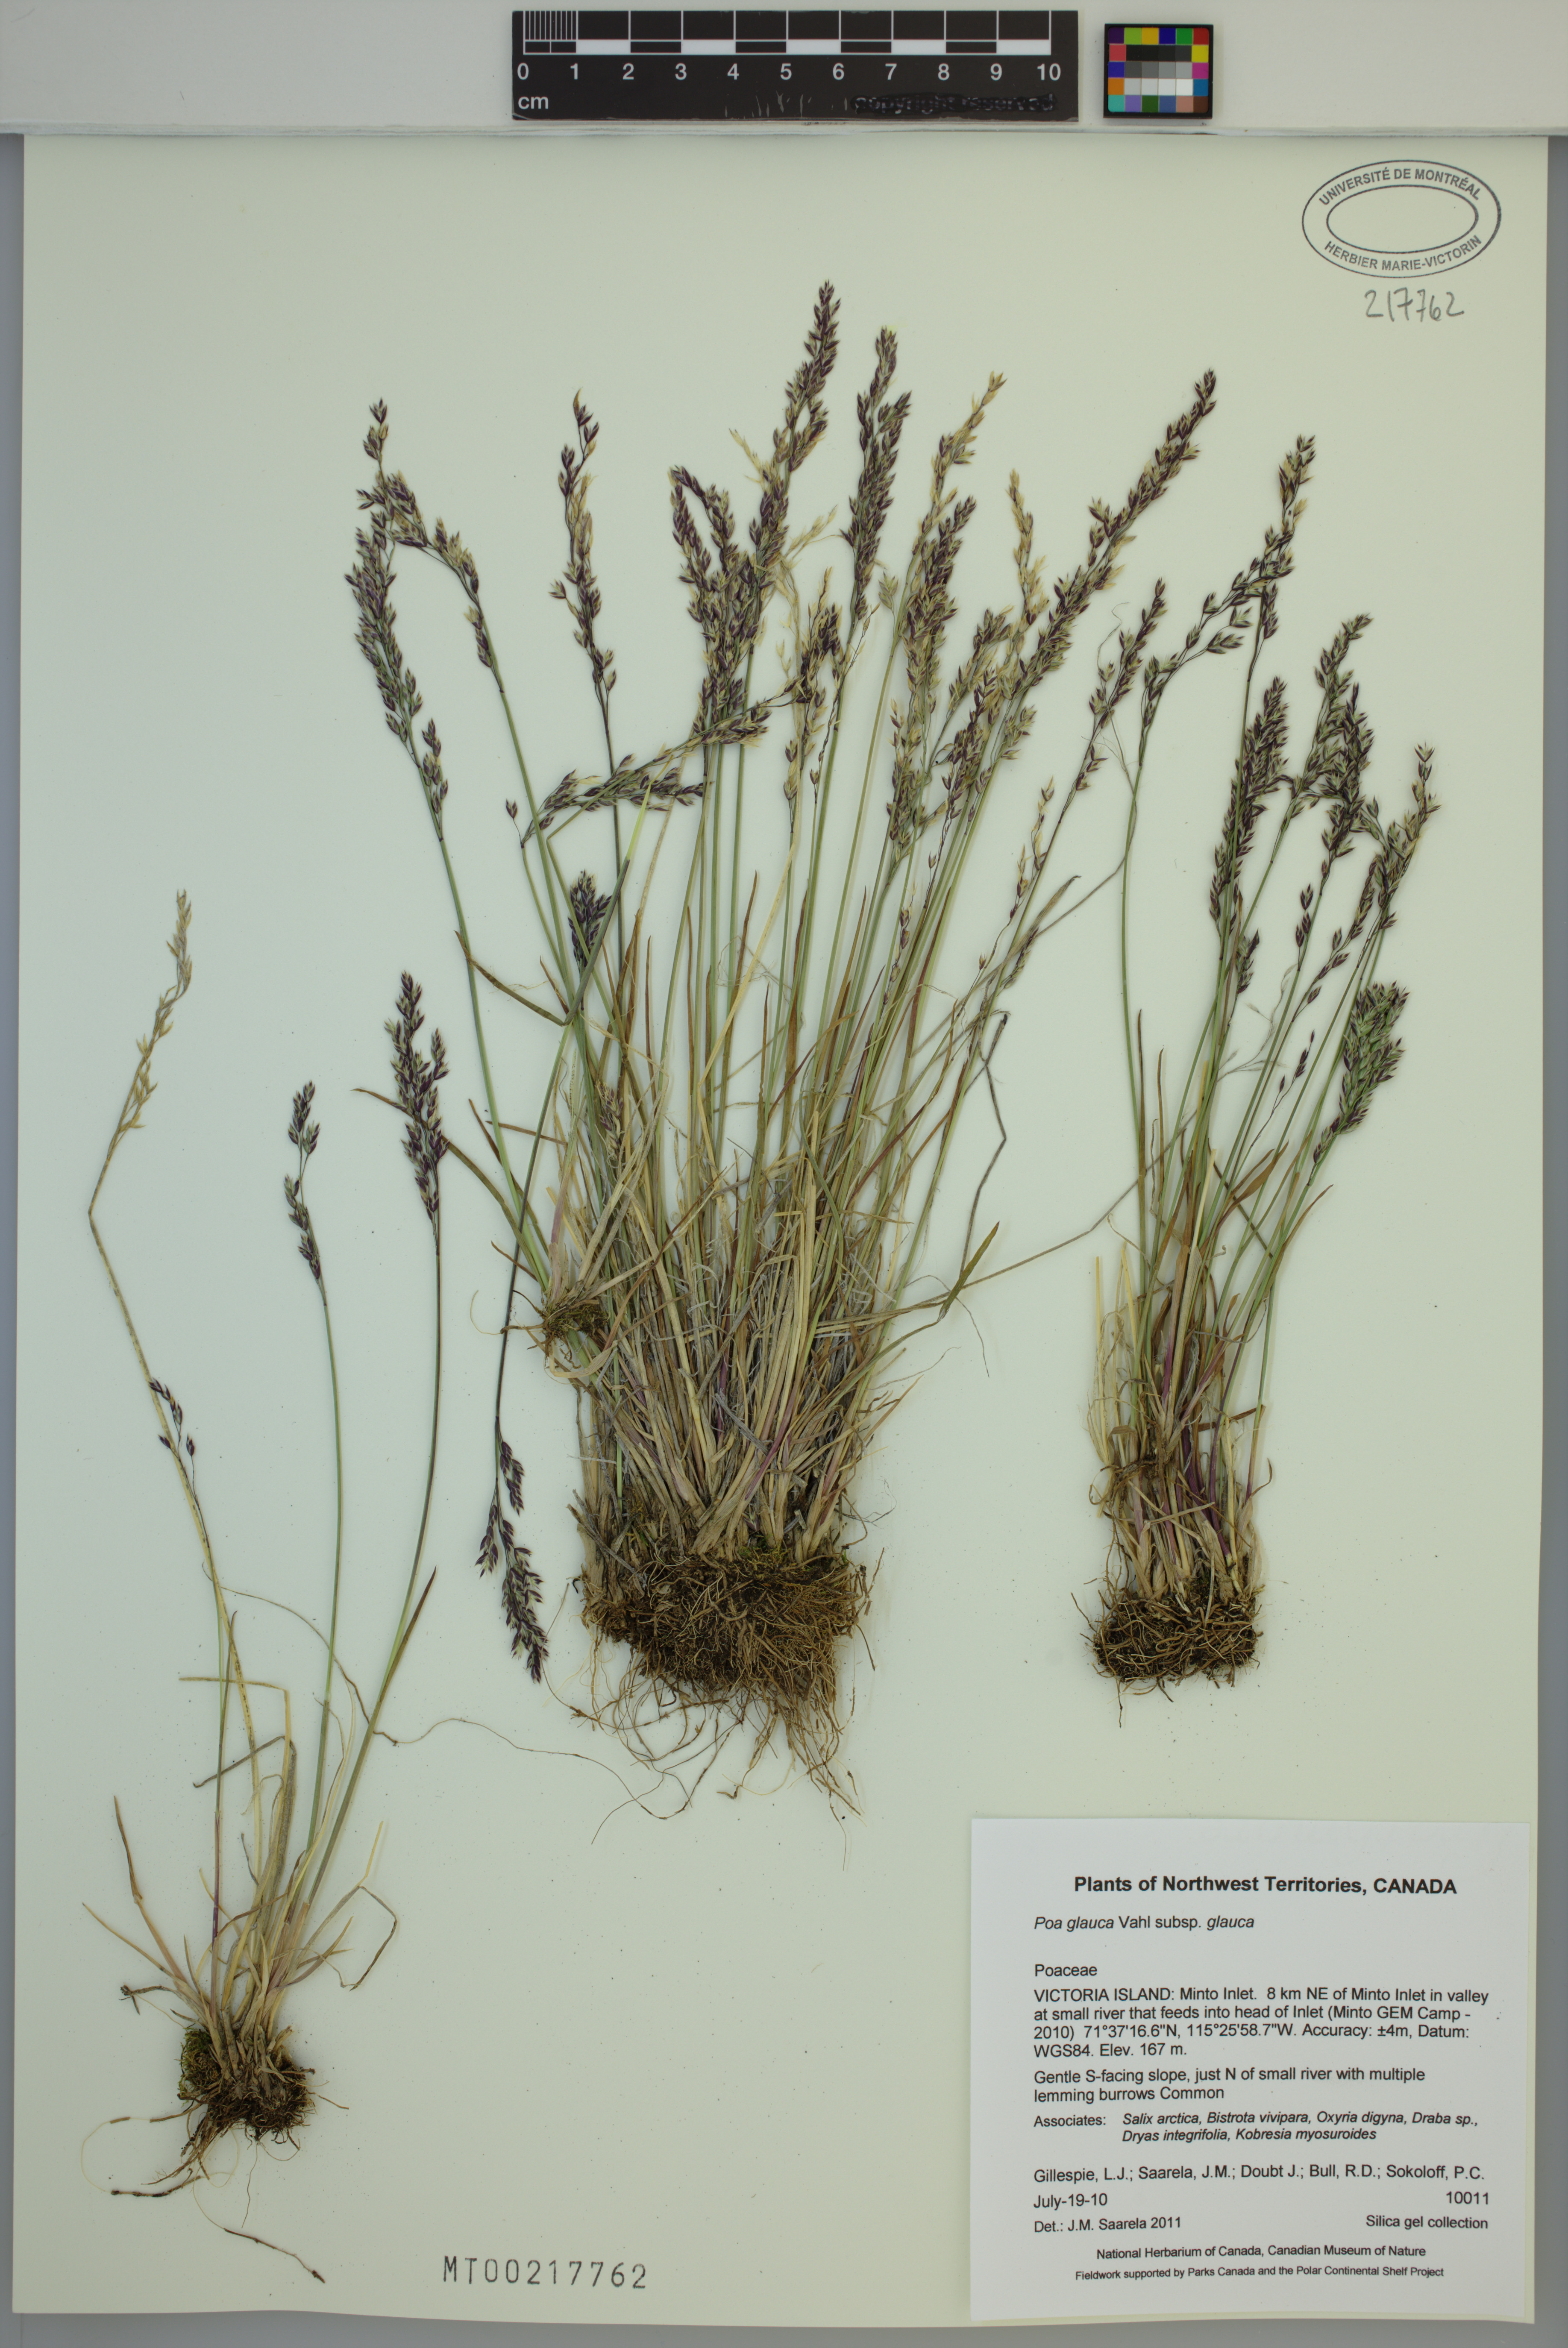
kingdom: Plantae
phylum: Tracheophyta
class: Liliopsida
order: Poales
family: Poaceae
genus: Poa
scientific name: Poa glauca
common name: Glaucous bluegrass
